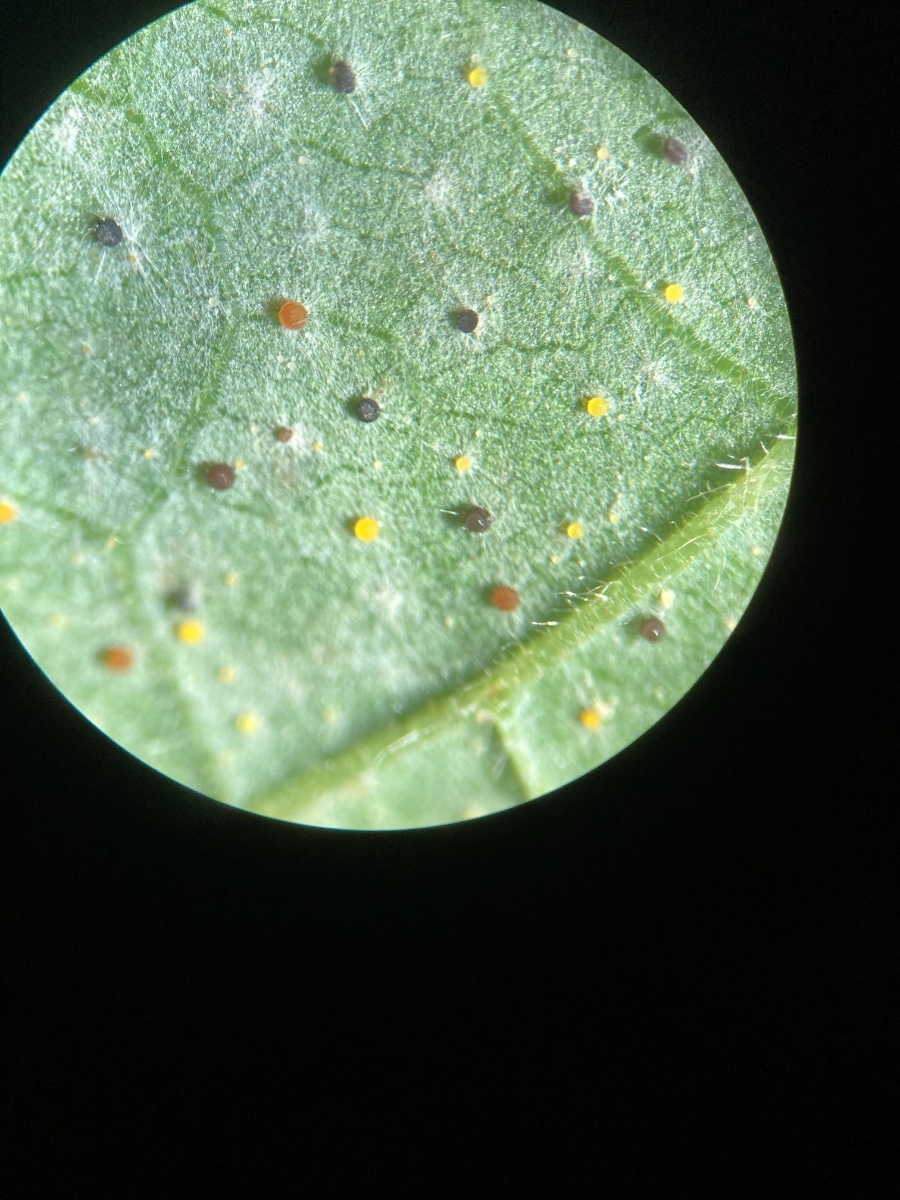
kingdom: Fungi
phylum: Ascomycota
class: Leotiomycetes
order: Helotiales
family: Erysiphaceae
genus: Phyllactinia
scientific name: Phyllactinia guttata
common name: hassel-meldug
